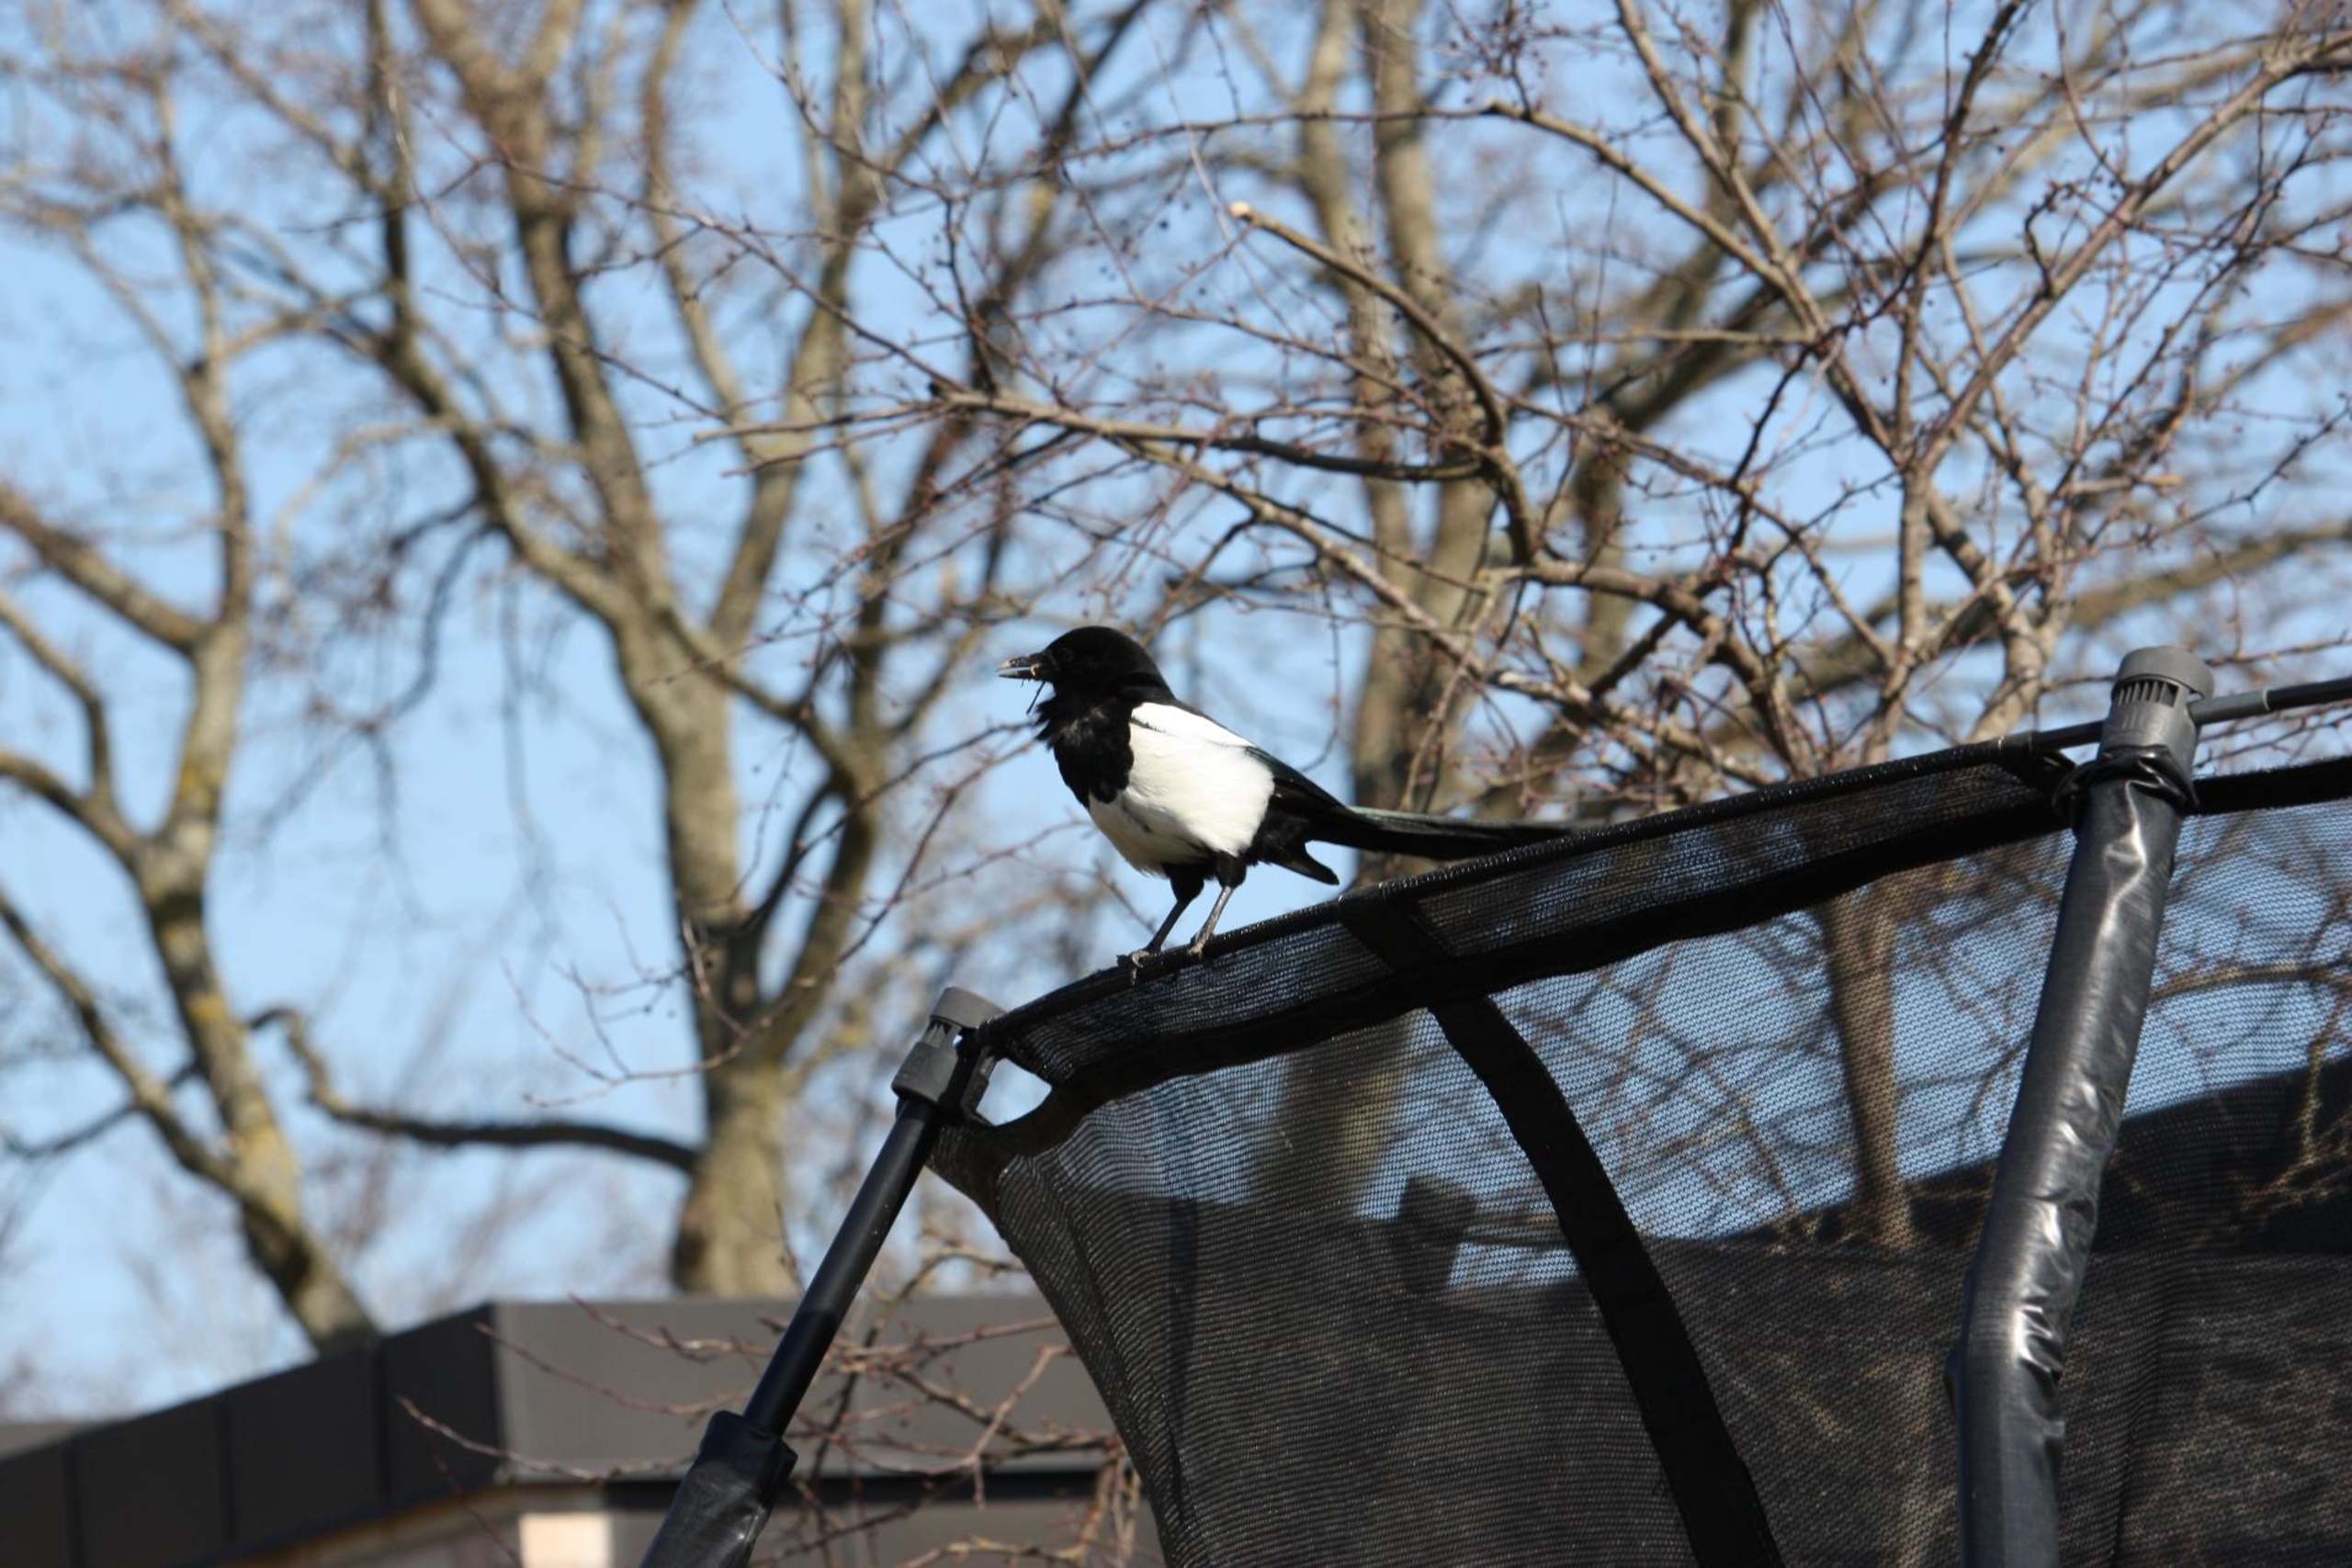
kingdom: Animalia
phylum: Chordata
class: Aves
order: Passeriformes
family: Corvidae
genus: Pica
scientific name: Pica pica
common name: Husskade
